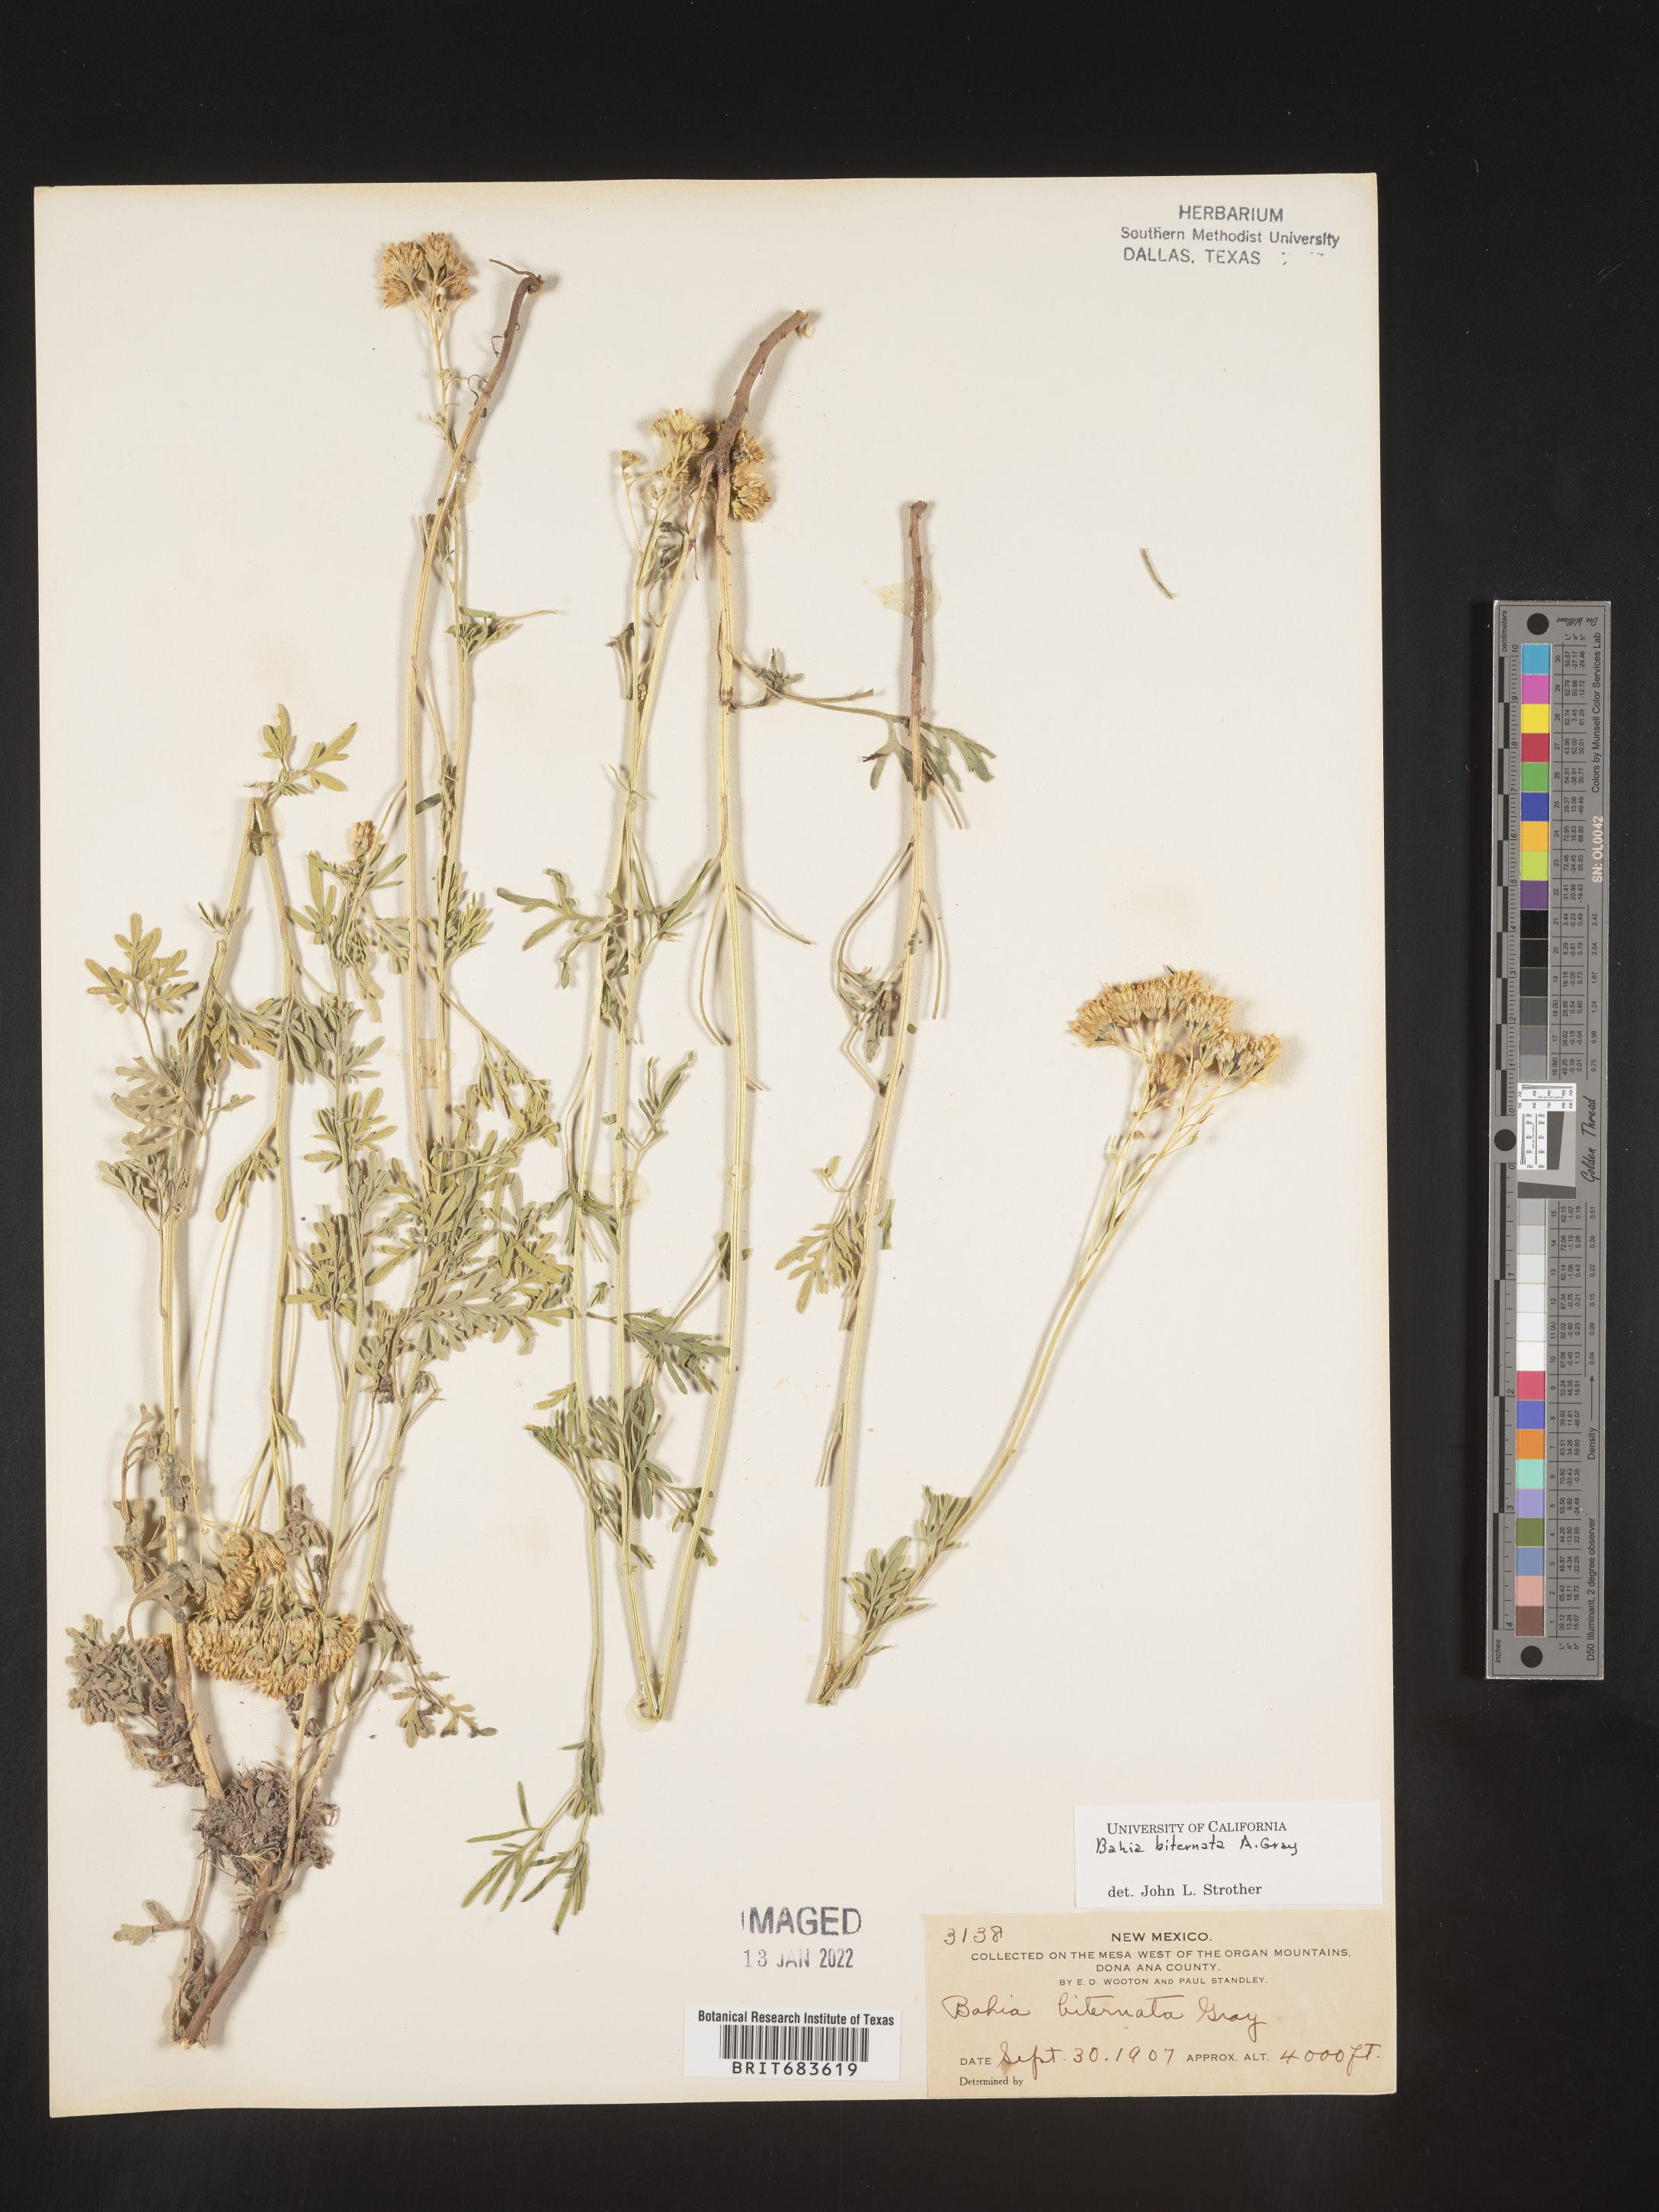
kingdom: Plantae
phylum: Tracheophyta
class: Magnoliopsida
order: Asterales
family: Asteraceae
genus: Hymenothrix
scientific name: Hymenothrix biternata
